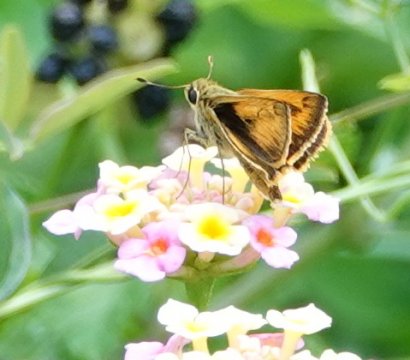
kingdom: Animalia
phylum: Arthropoda
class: Insecta
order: Lepidoptera
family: Hesperiidae
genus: Polites
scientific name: Polites vibex
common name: Whirlabout
